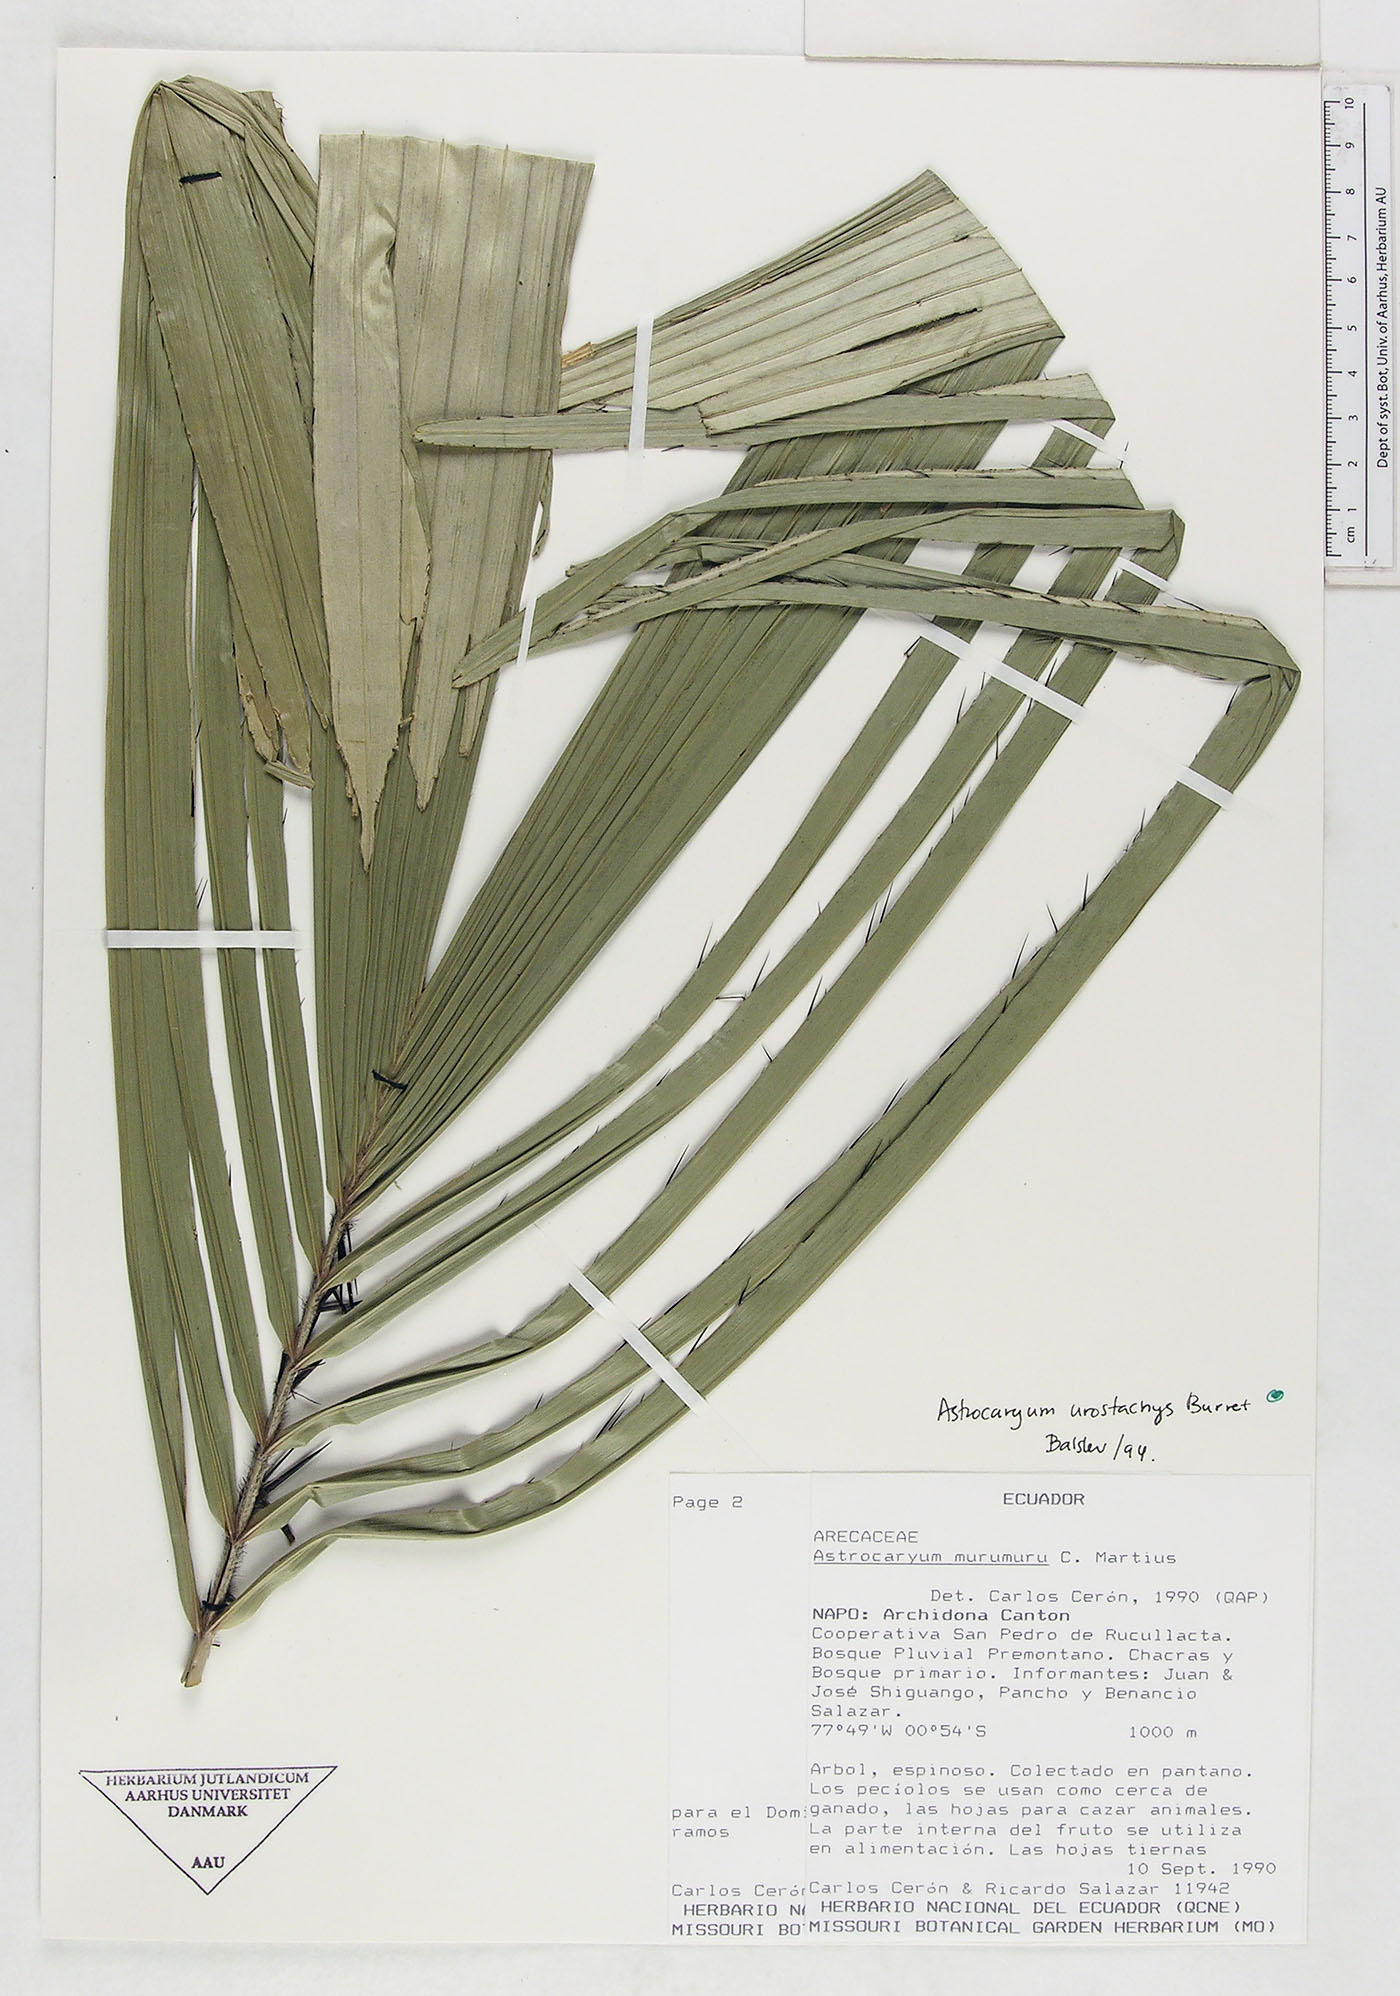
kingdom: Plantae
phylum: Tracheophyta
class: Liliopsida
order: Arecales
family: Arecaceae
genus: Astrocaryum
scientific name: Astrocaryum urostachys
